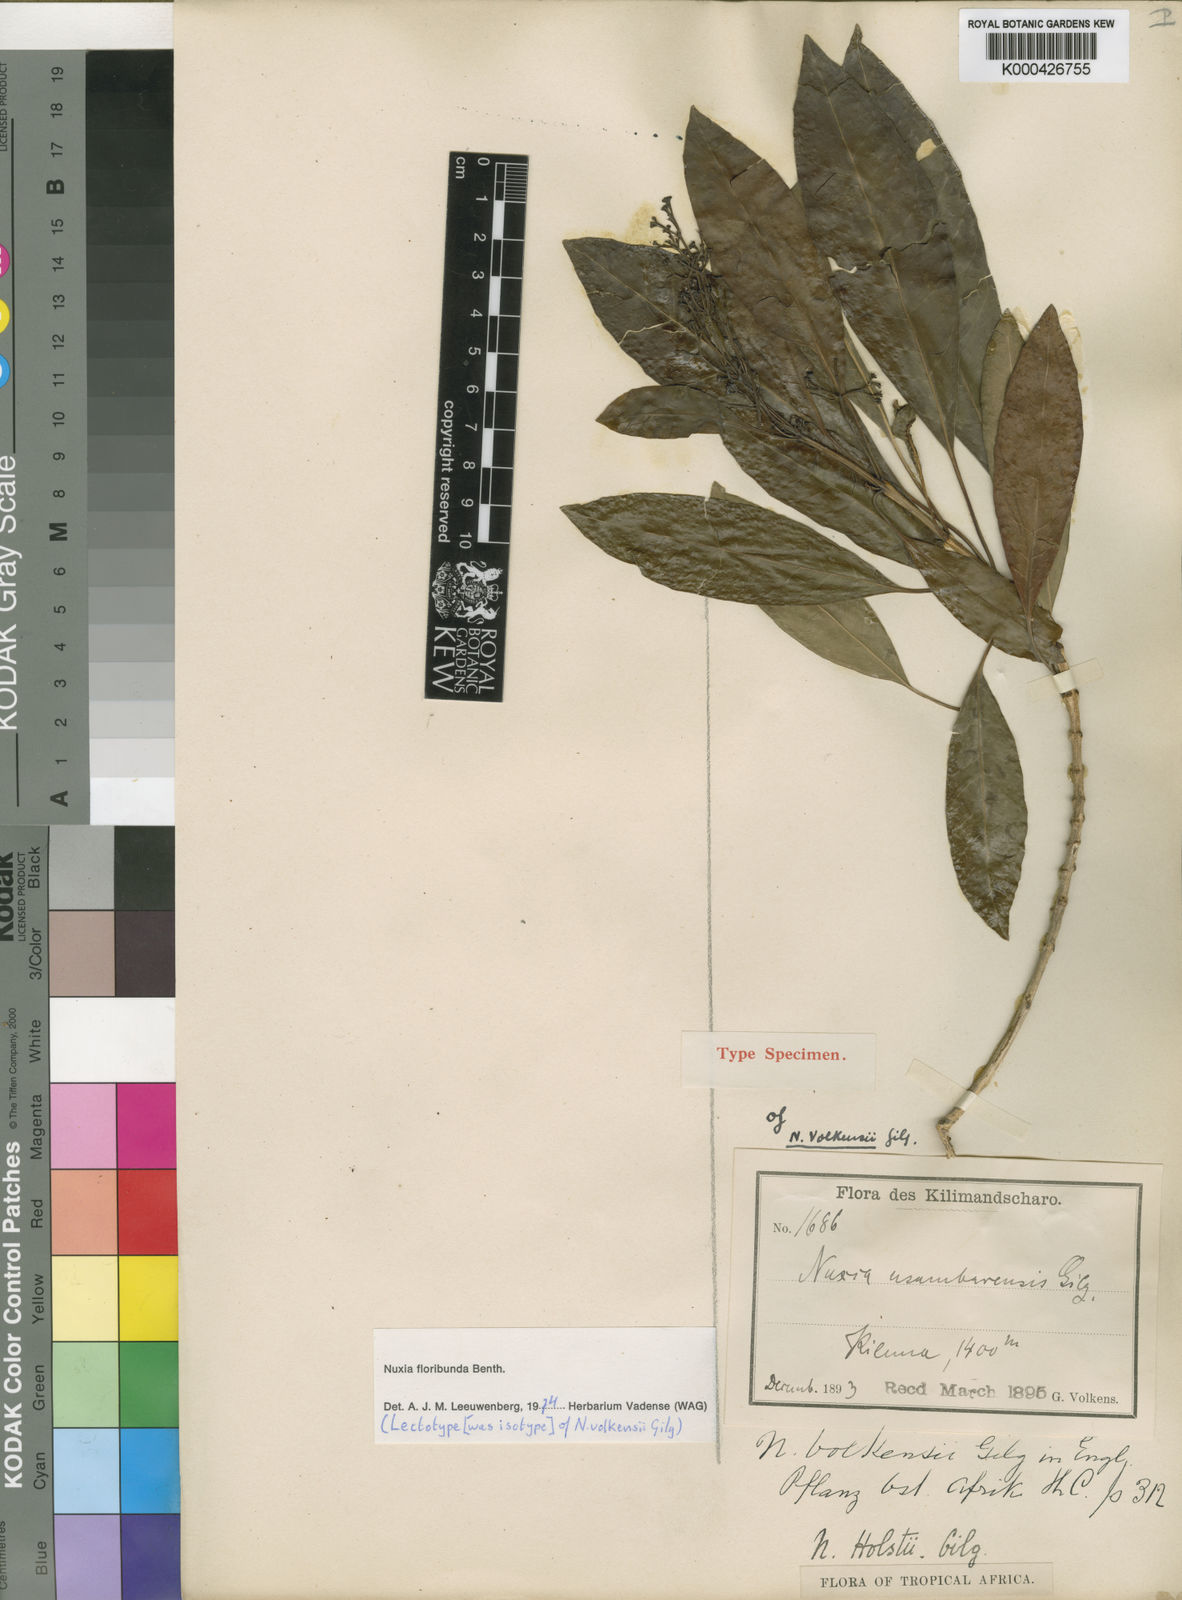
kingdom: Plantae
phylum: Tracheophyta
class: Magnoliopsida
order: Lamiales
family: Stilbaceae
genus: Nuxia
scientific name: Nuxia floribunda
